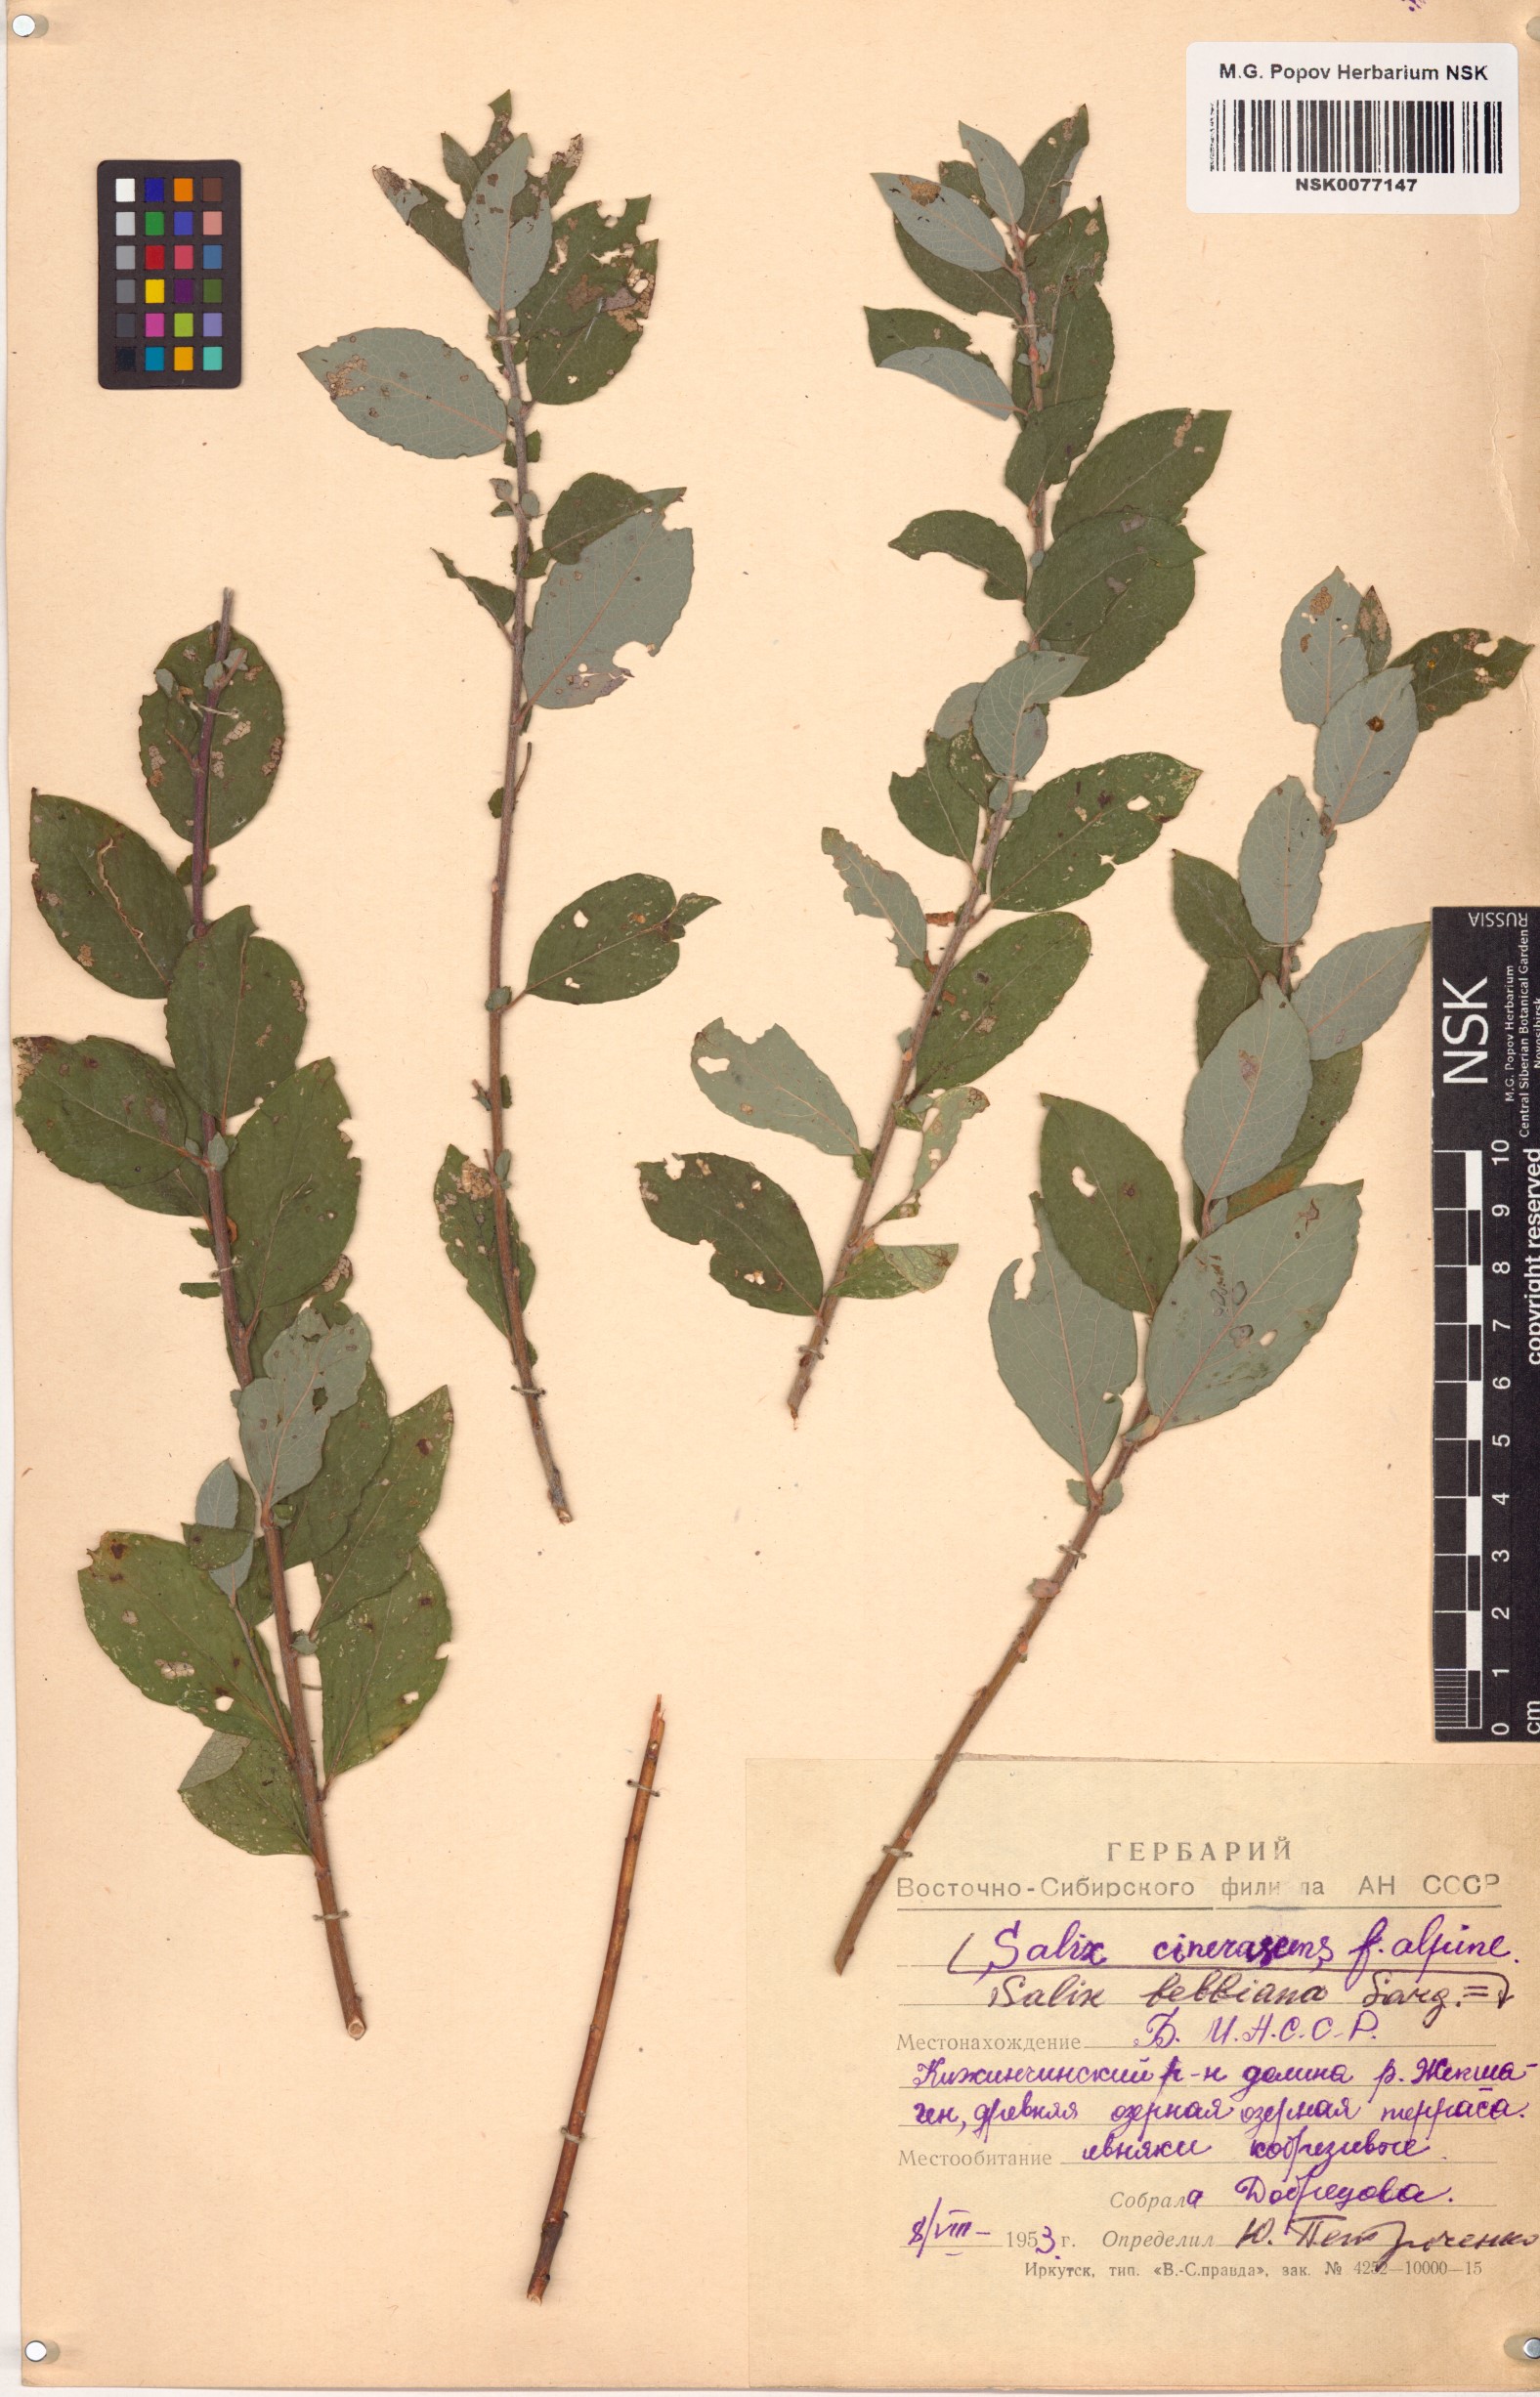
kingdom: Plantae
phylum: Tracheophyta
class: Magnoliopsida
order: Malpighiales
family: Salicaceae
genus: Salix
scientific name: Salix bebbiana
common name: Bebb's willow
